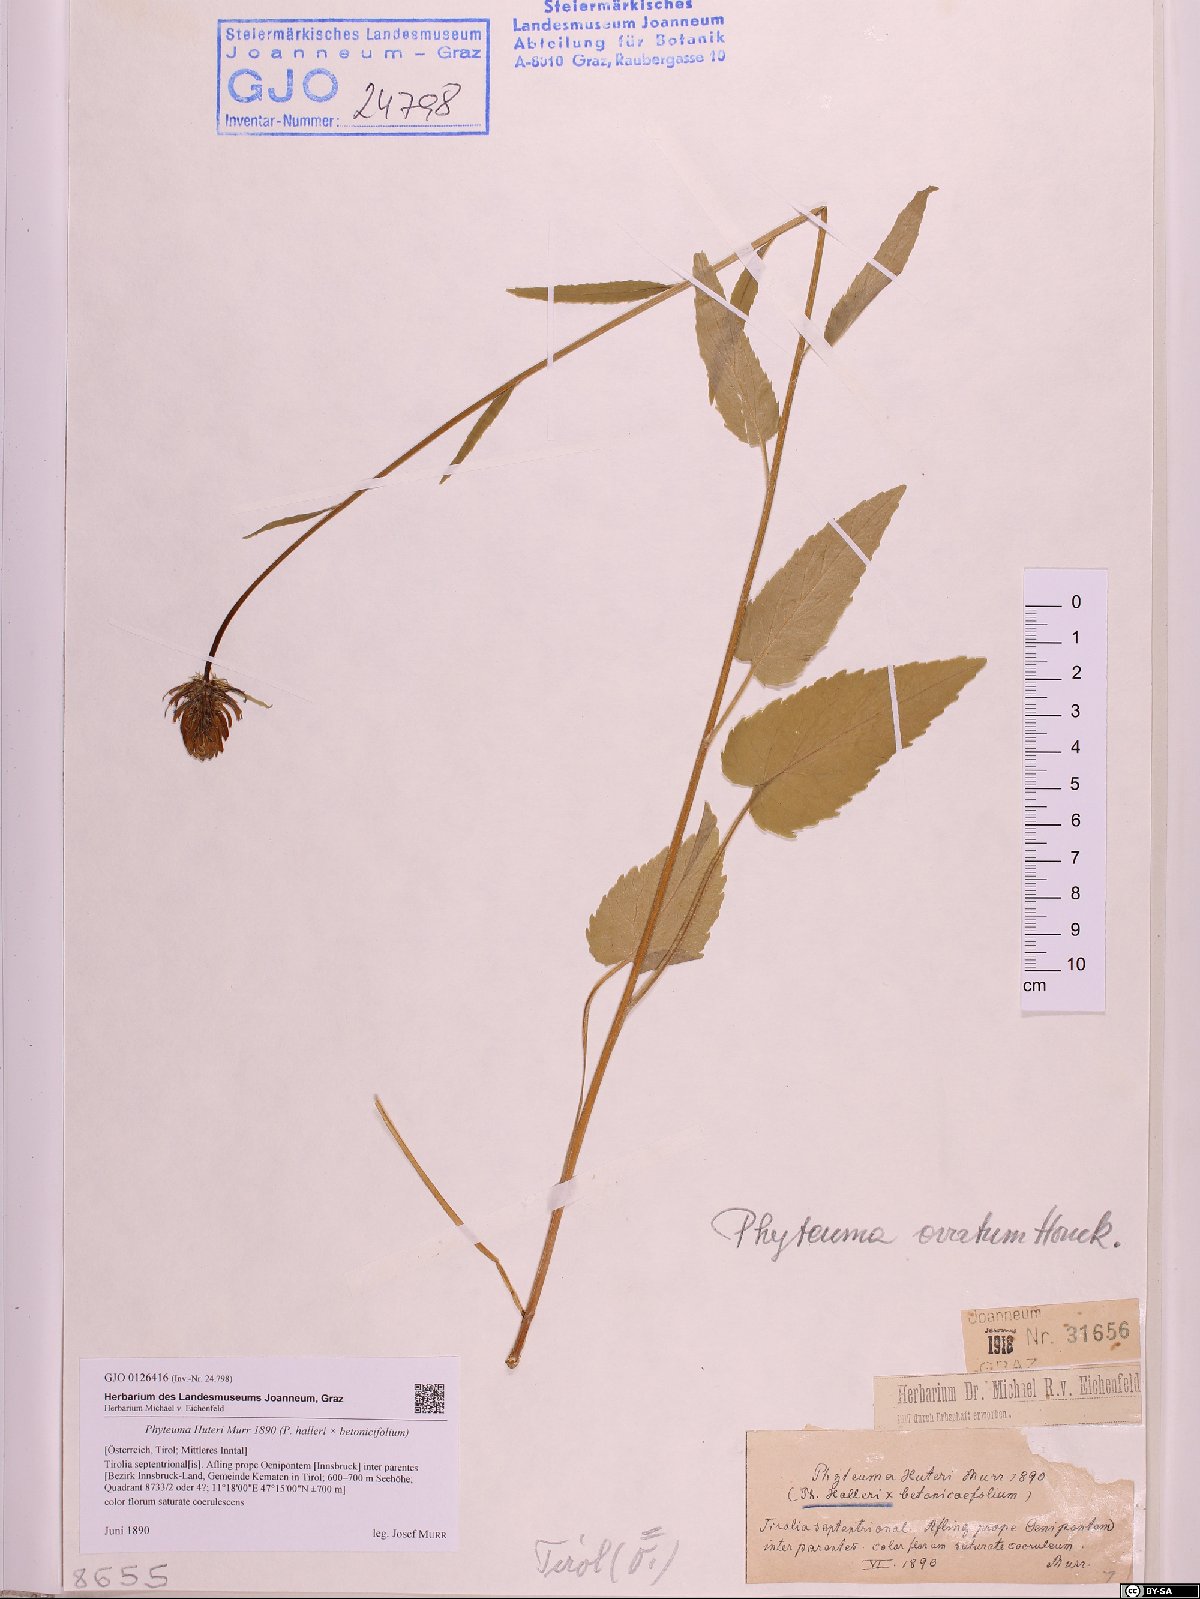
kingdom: Plantae
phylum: Tracheophyta
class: Magnoliopsida
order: Asterales
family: Campanulaceae
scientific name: Campanulaceae
